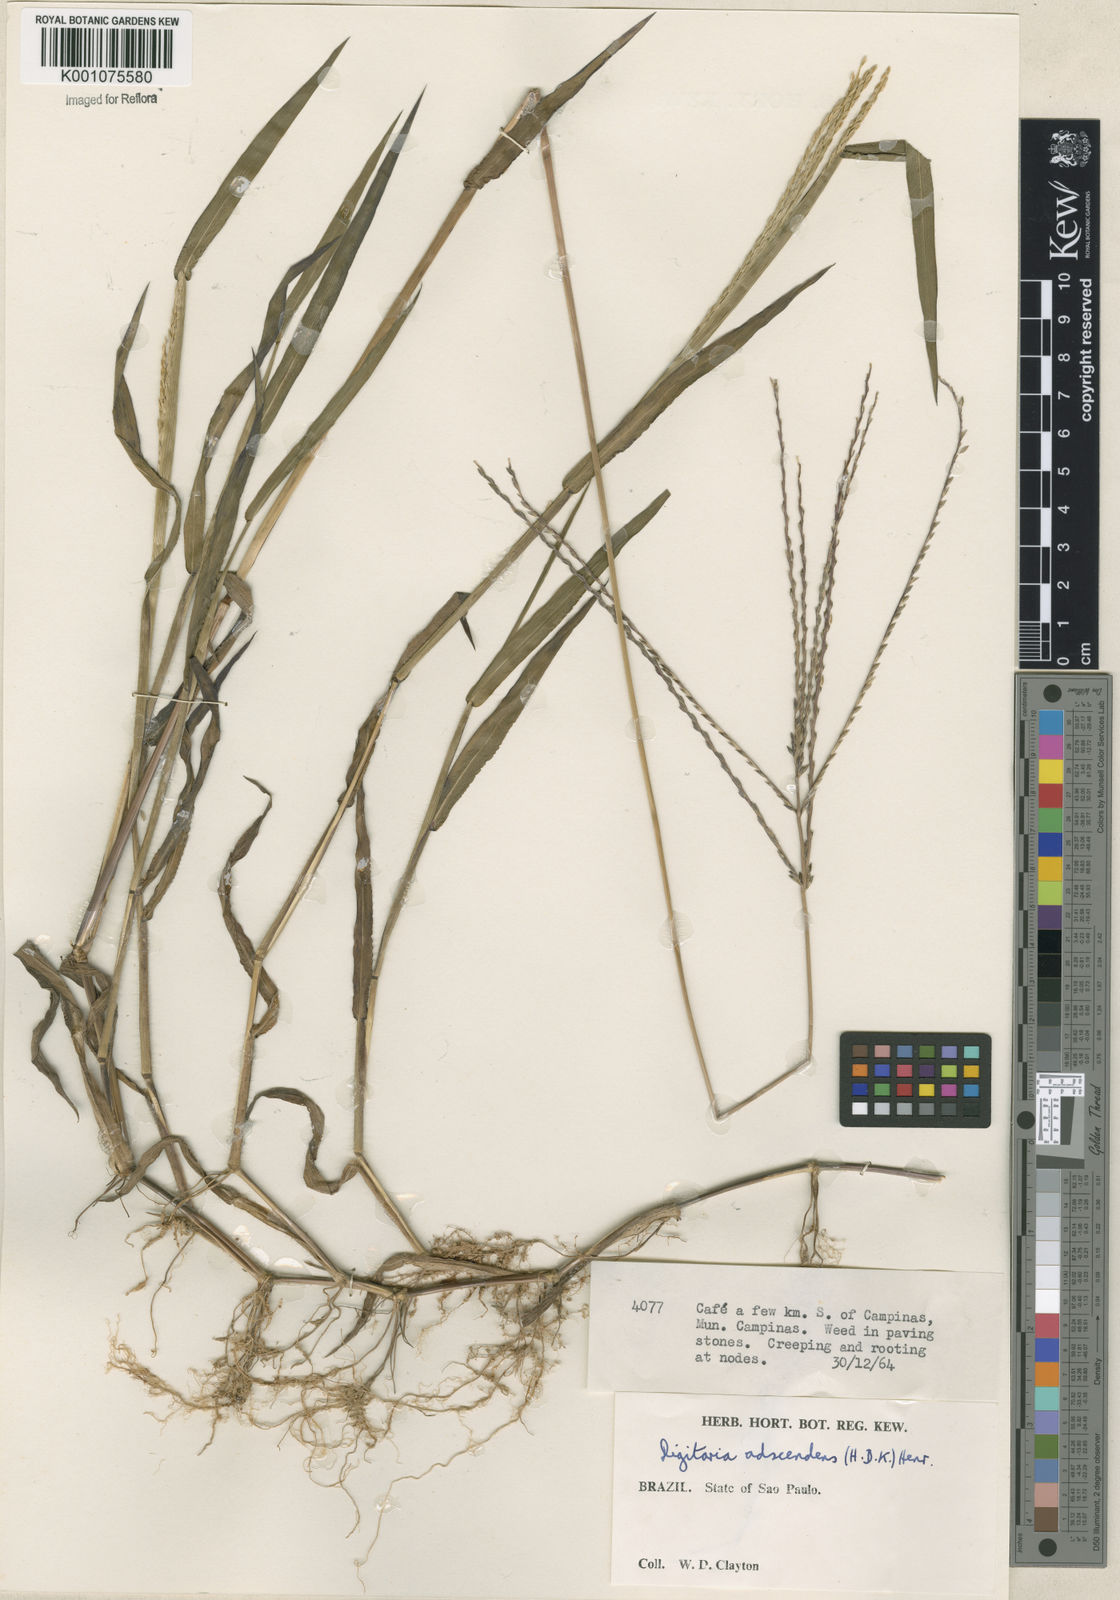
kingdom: Plantae
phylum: Tracheophyta
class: Liliopsida
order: Poales
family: Poaceae
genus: Digitaria
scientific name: Digitaria ciliaris
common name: Tropical finger-grass
